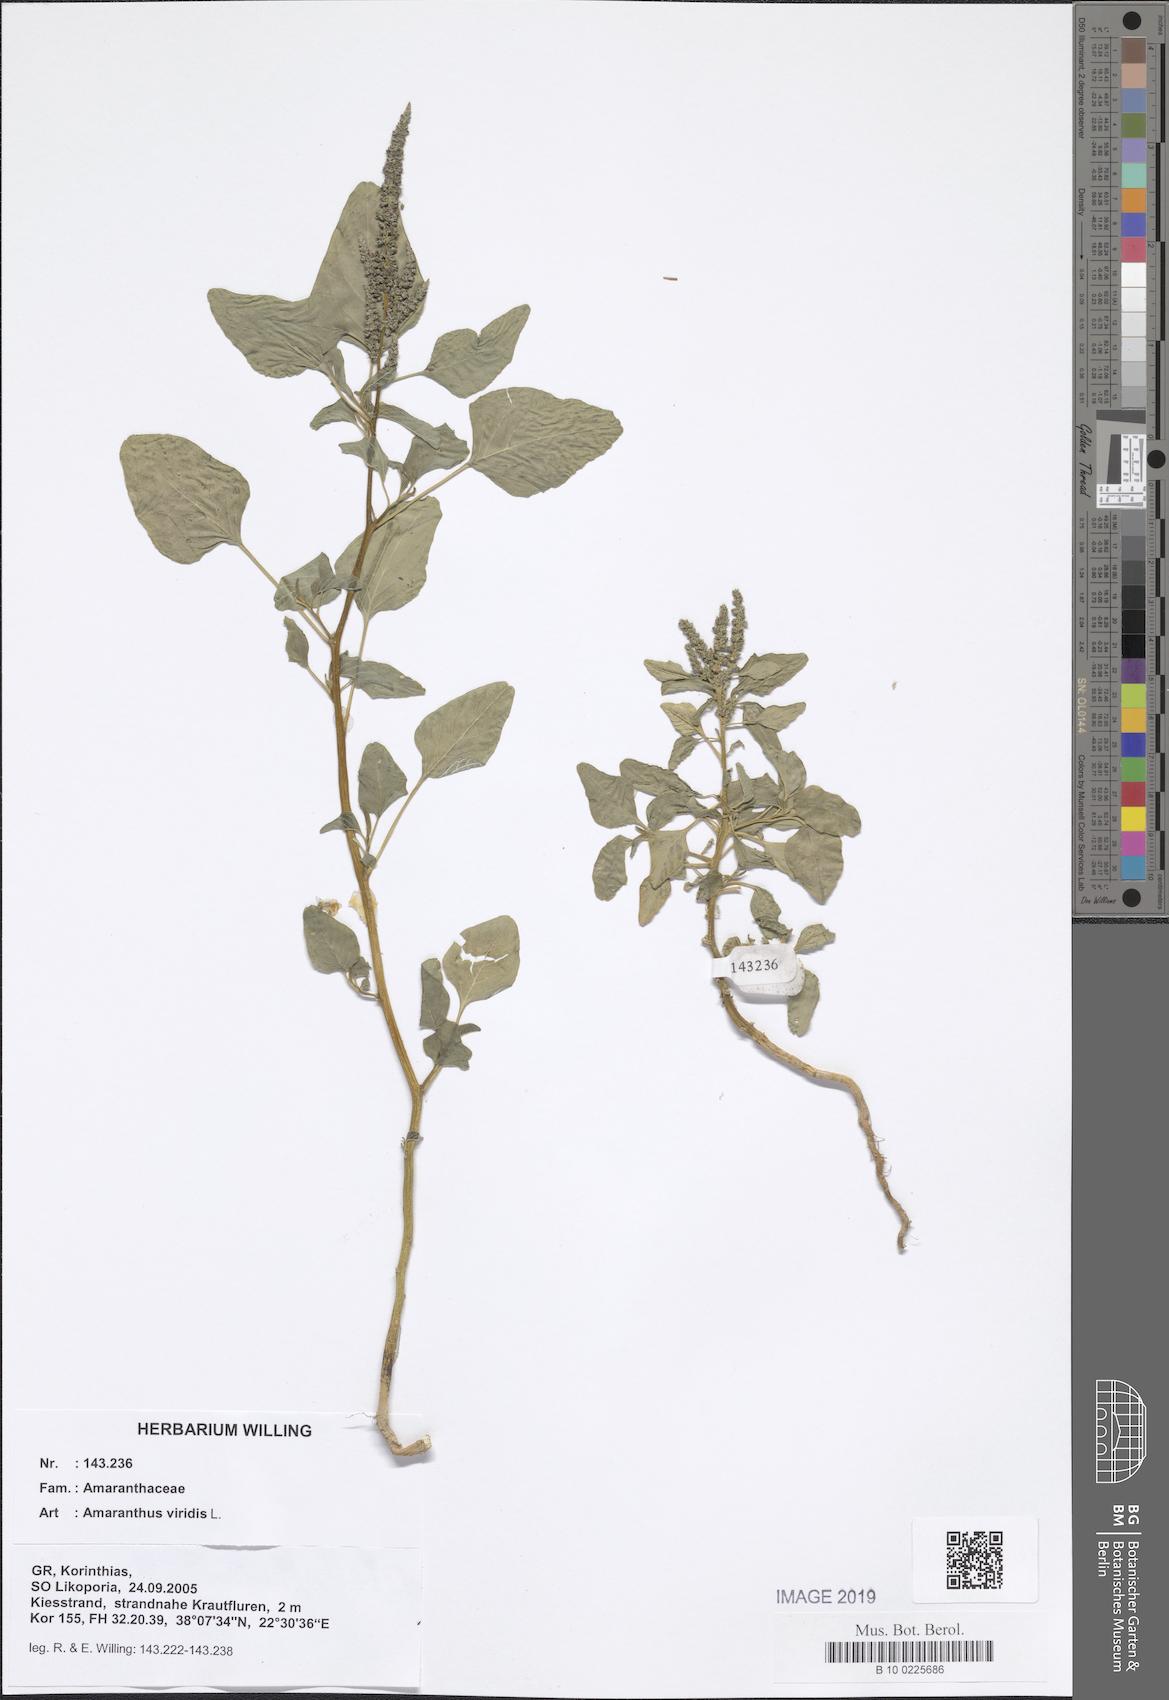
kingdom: Plantae
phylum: Tracheophyta
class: Magnoliopsida
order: Caryophyllales
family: Amaranthaceae
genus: Amaranthus
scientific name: Amaranthus viridis
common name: Slender amaranth
